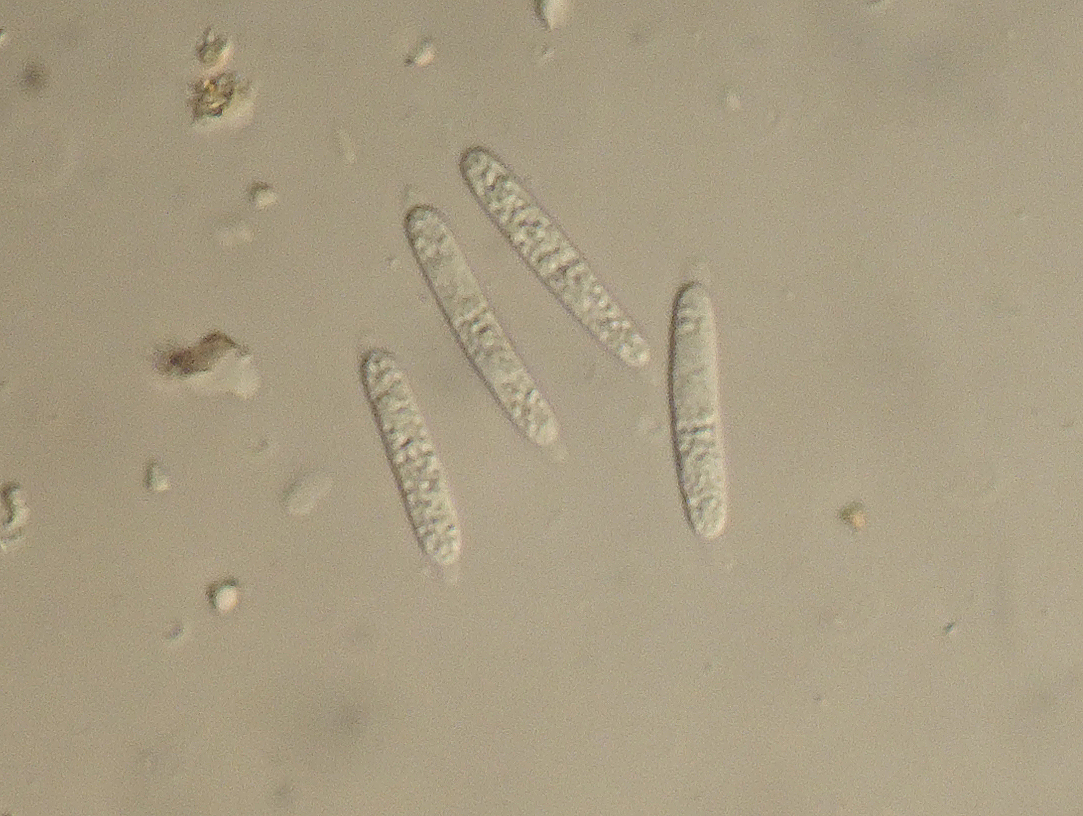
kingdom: Fungi
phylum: Ascomycota
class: Sordariomycetes
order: Diaporthales
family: Gnomoniaceae
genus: Ditopella
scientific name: Ditopella ditopa
